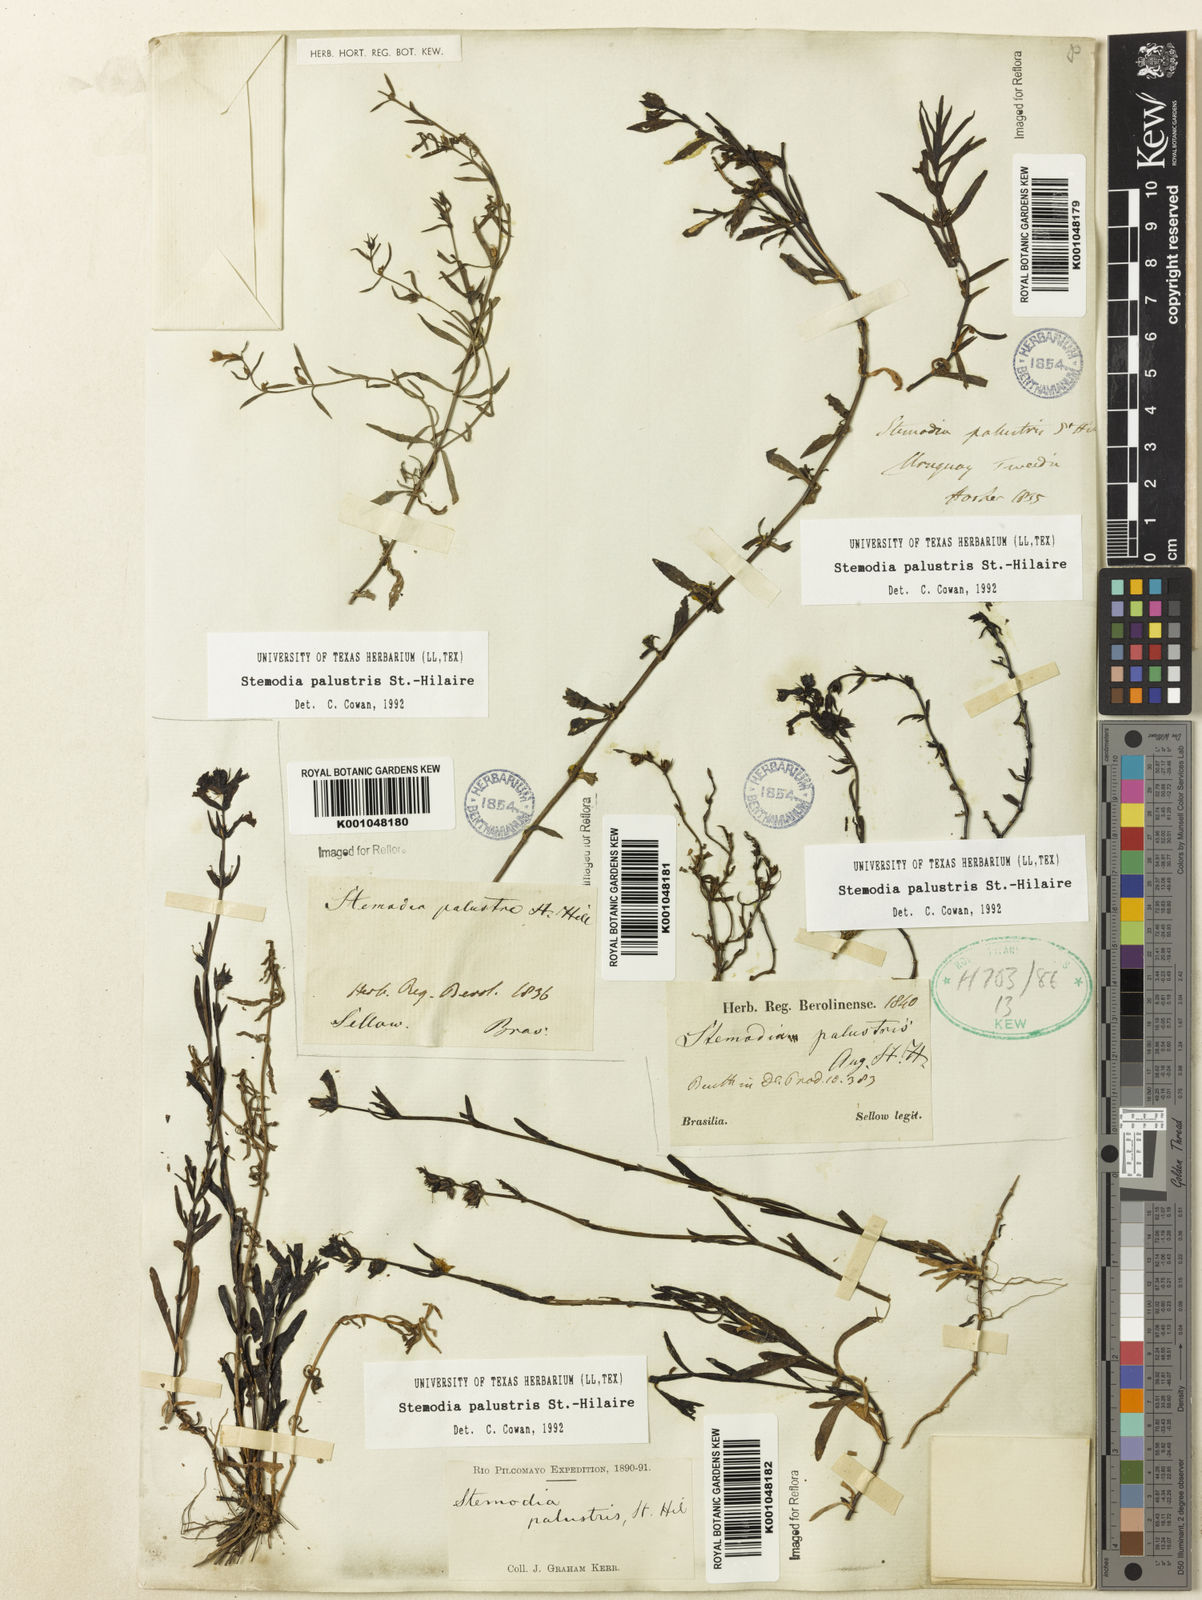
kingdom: Plantae
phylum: Tracheophyta
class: Magnoliopsida
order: Lamiales
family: Plantaginaceae
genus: Stemodia
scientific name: Stemodia palustris
